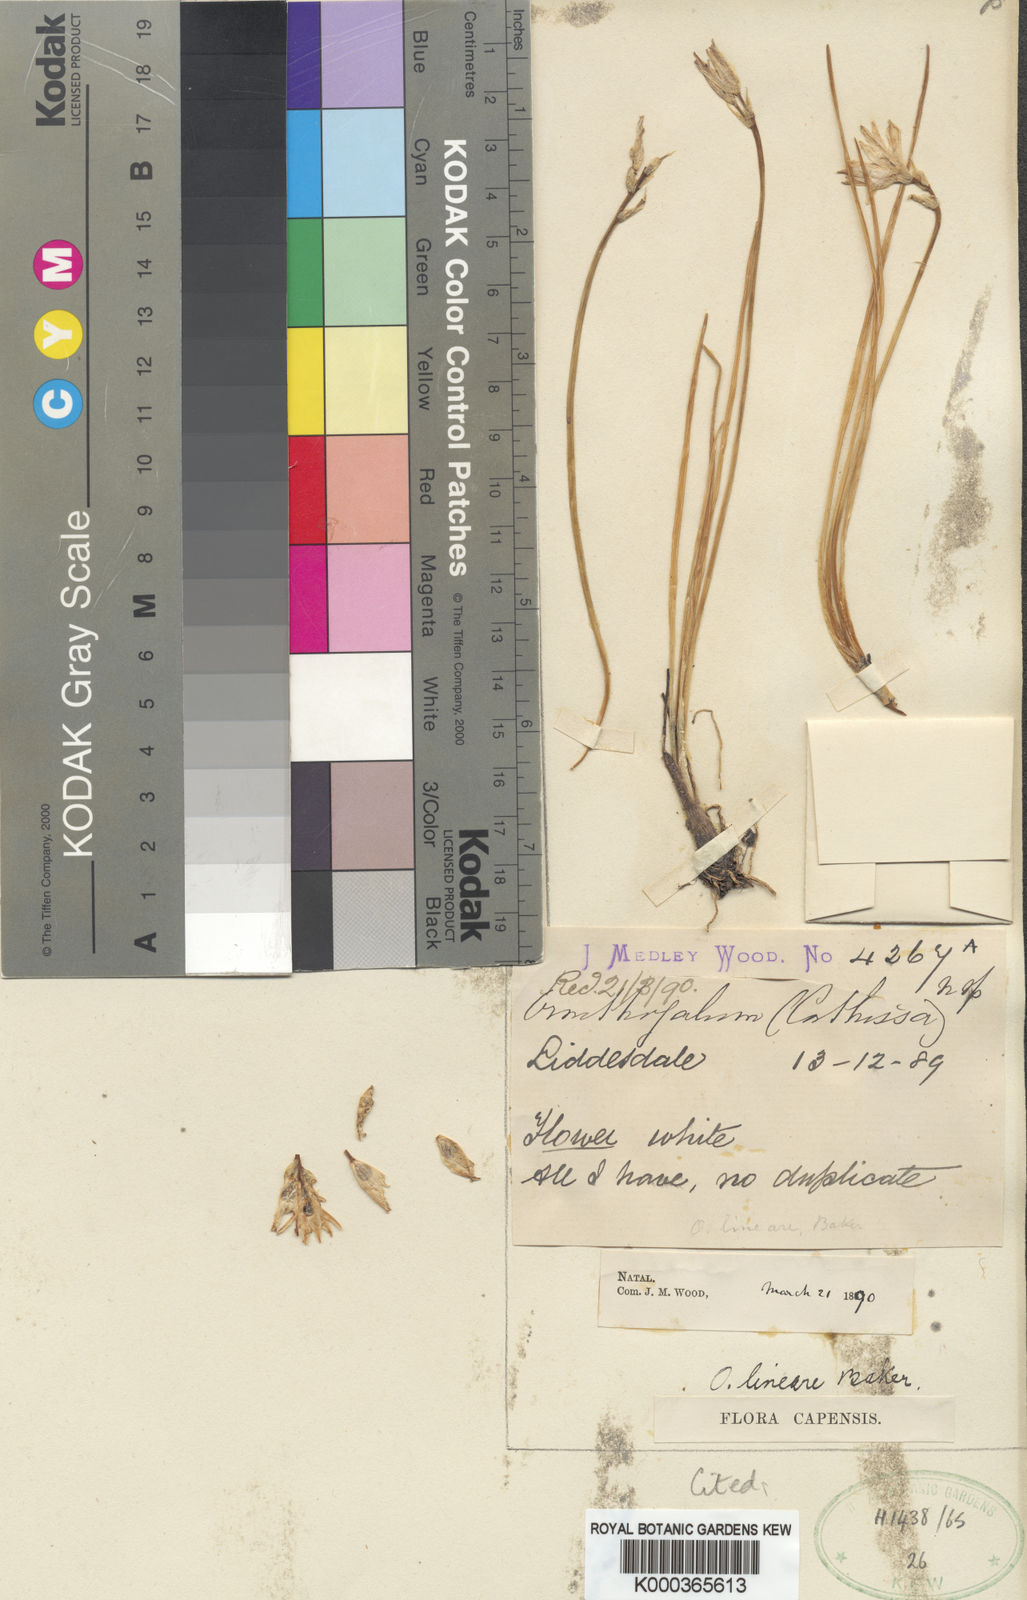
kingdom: Plantae
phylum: Tracheophyta
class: Liliopsida
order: Asparagales
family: Asparagaceae
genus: Ornithogalum
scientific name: Ornithogalum paludosum
